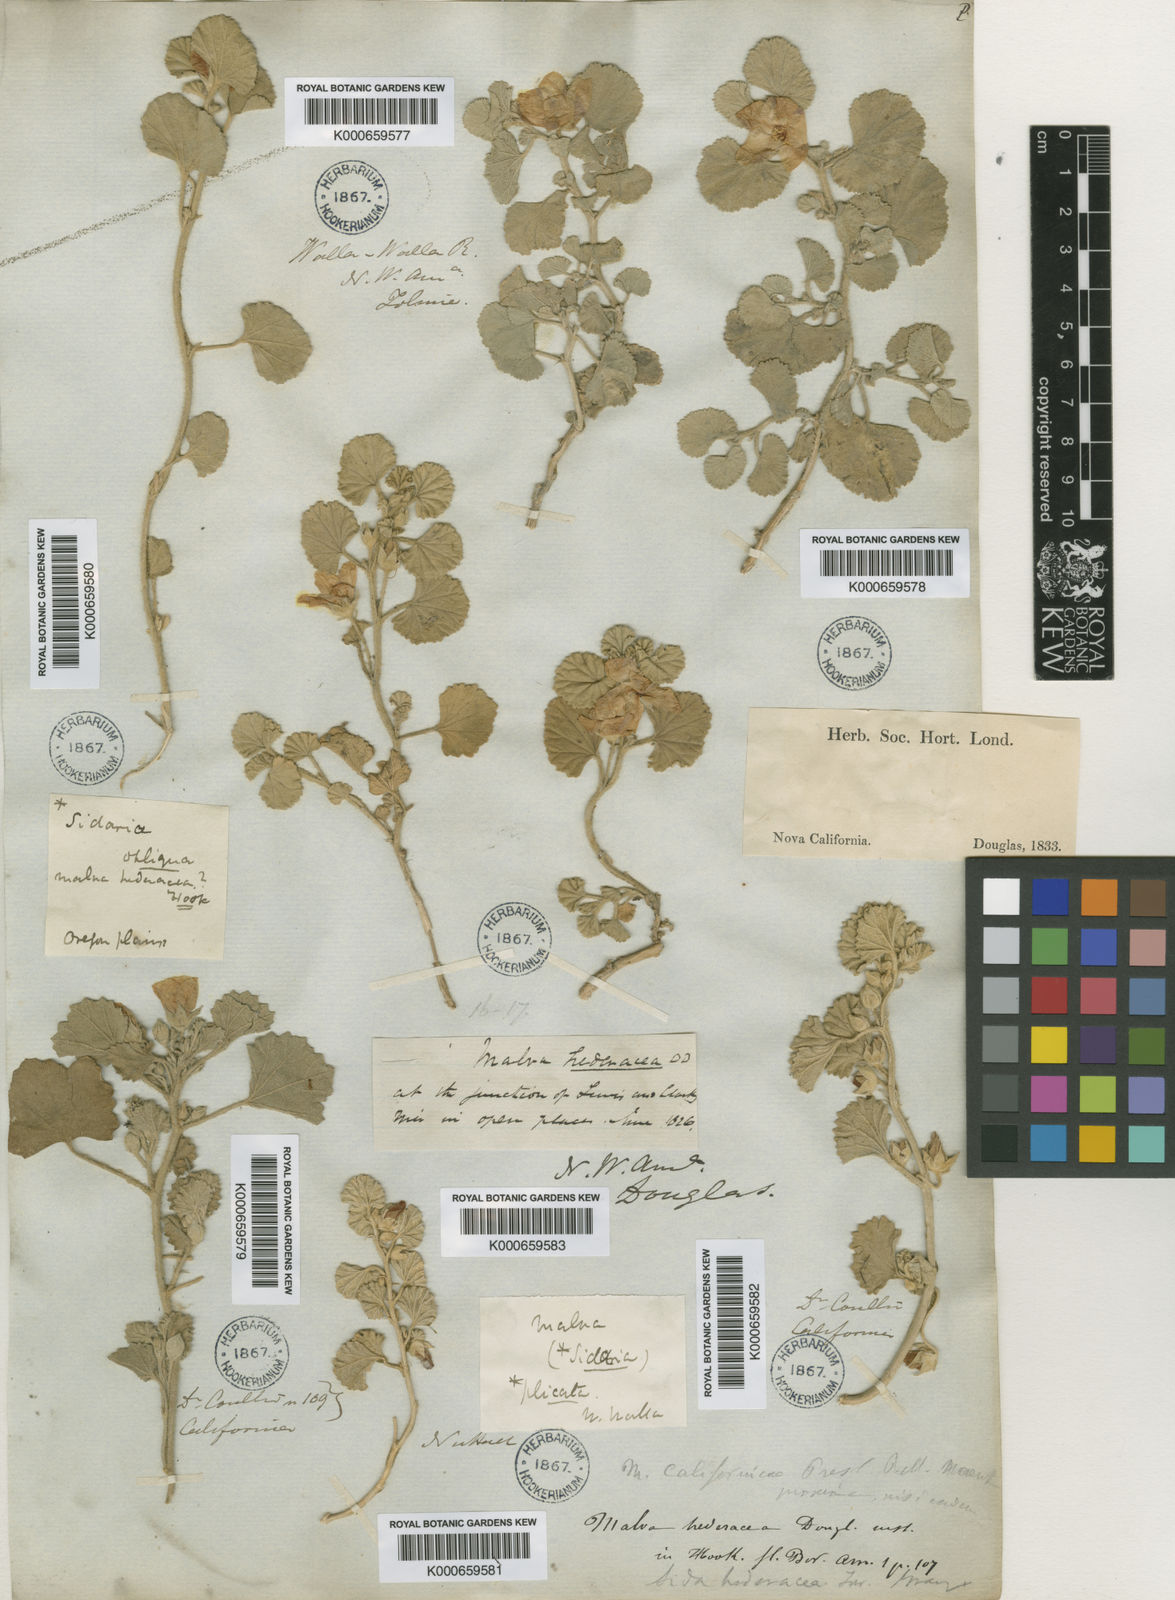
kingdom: Plantae
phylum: Tracheophyta
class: Magnoliopsida
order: Malvales
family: Malvaceae
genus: Malvella
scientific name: Malvella leprosa
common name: Alkali-mallow
